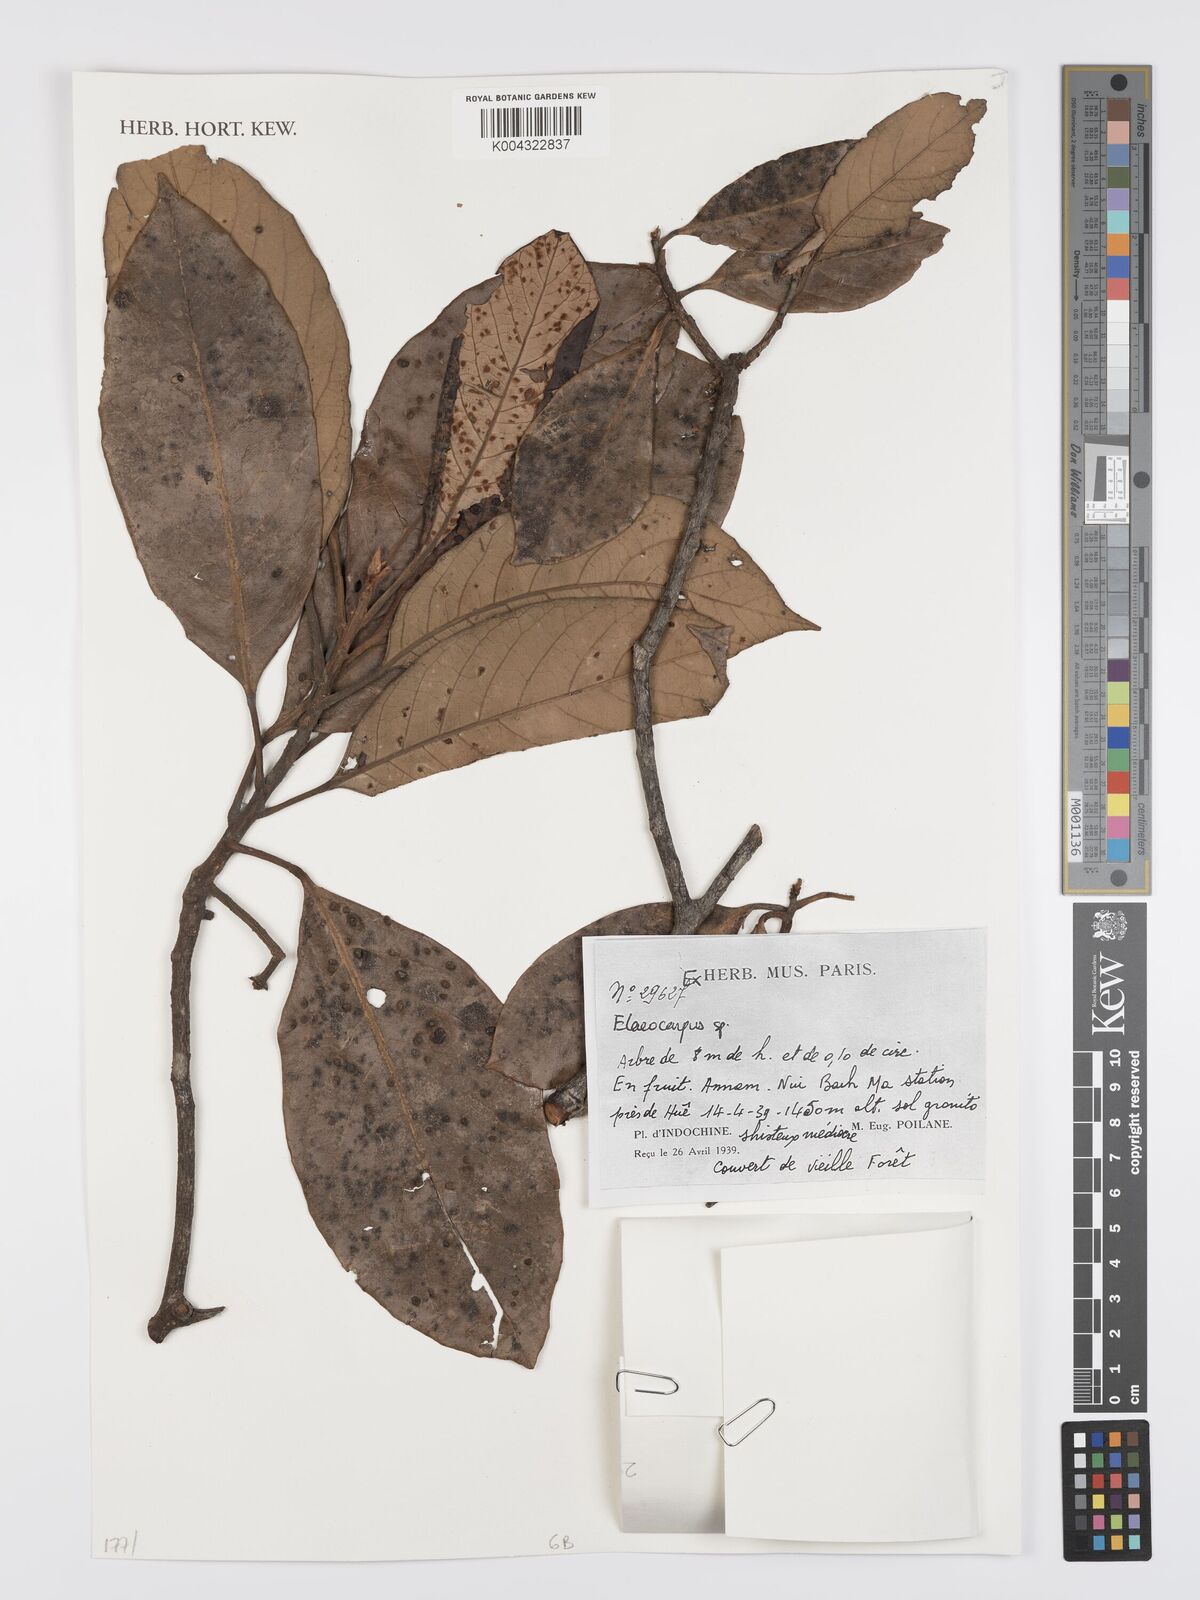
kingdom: Plantae
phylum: Tracheophyta
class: Magnoliopsida
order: Oxalidales
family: Elaeocarpaceae
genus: Elaeocarpus
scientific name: Elaeocarpus
